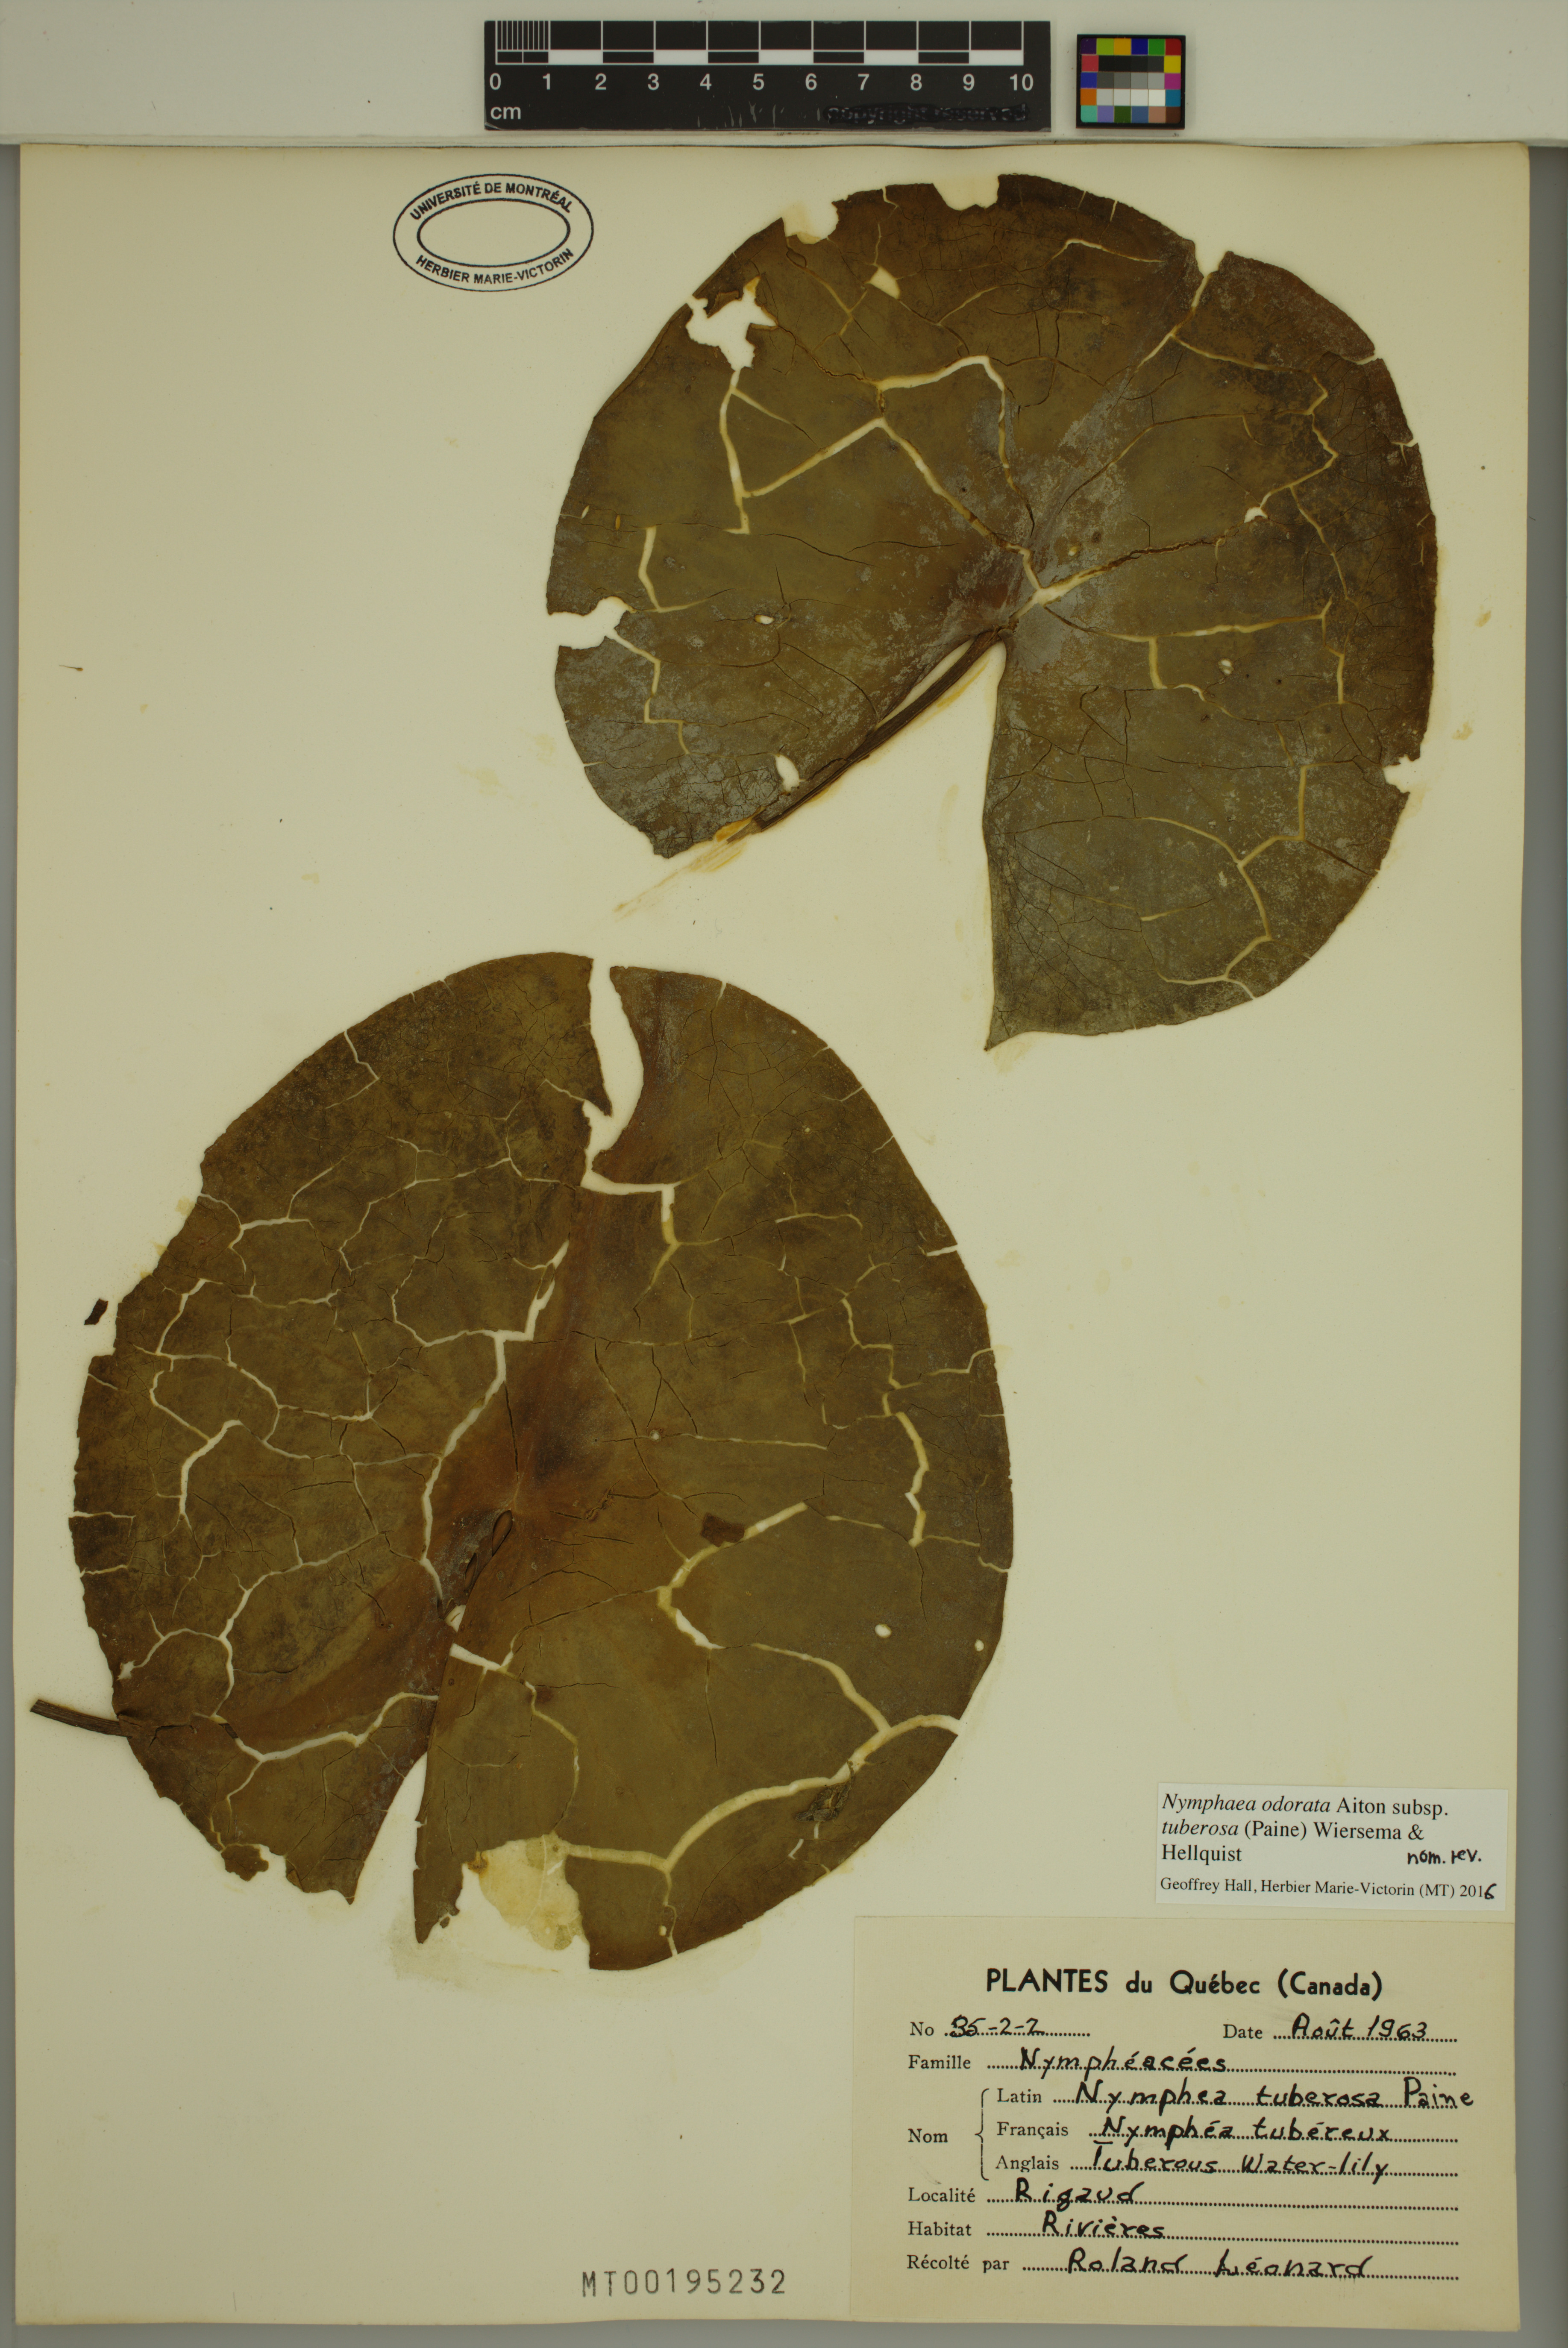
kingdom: Plantae
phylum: Tracheophyta
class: Magnoliopsida
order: Nymphaeales
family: Nymphaeaceae
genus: Nymphaea
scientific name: Nymphaea odorata
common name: Fragrant water-lily
